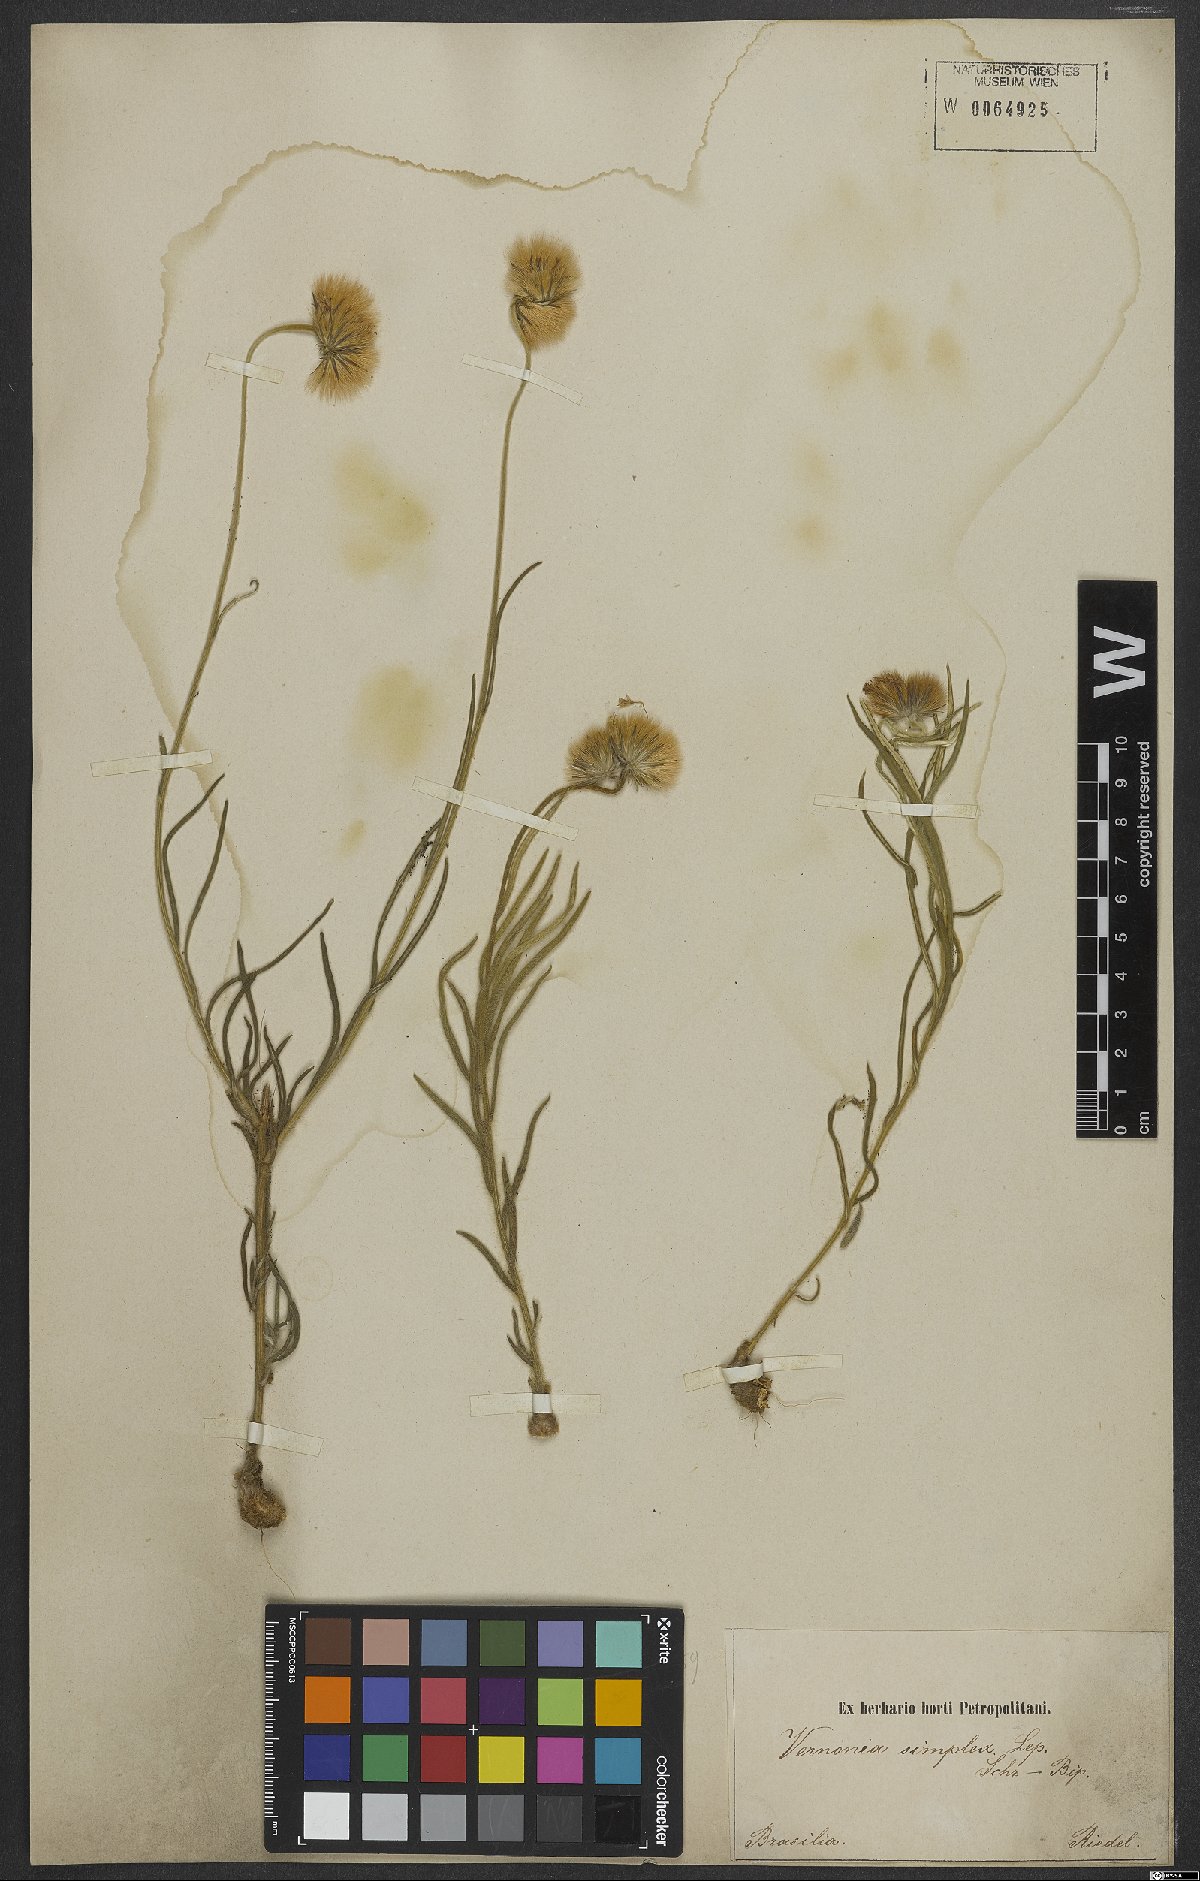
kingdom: Plantae
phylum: Tracheophyta
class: Magnoliopsida
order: Asterales
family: Asteraceae
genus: Chrysolaena
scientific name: Chrysolaena simplex
